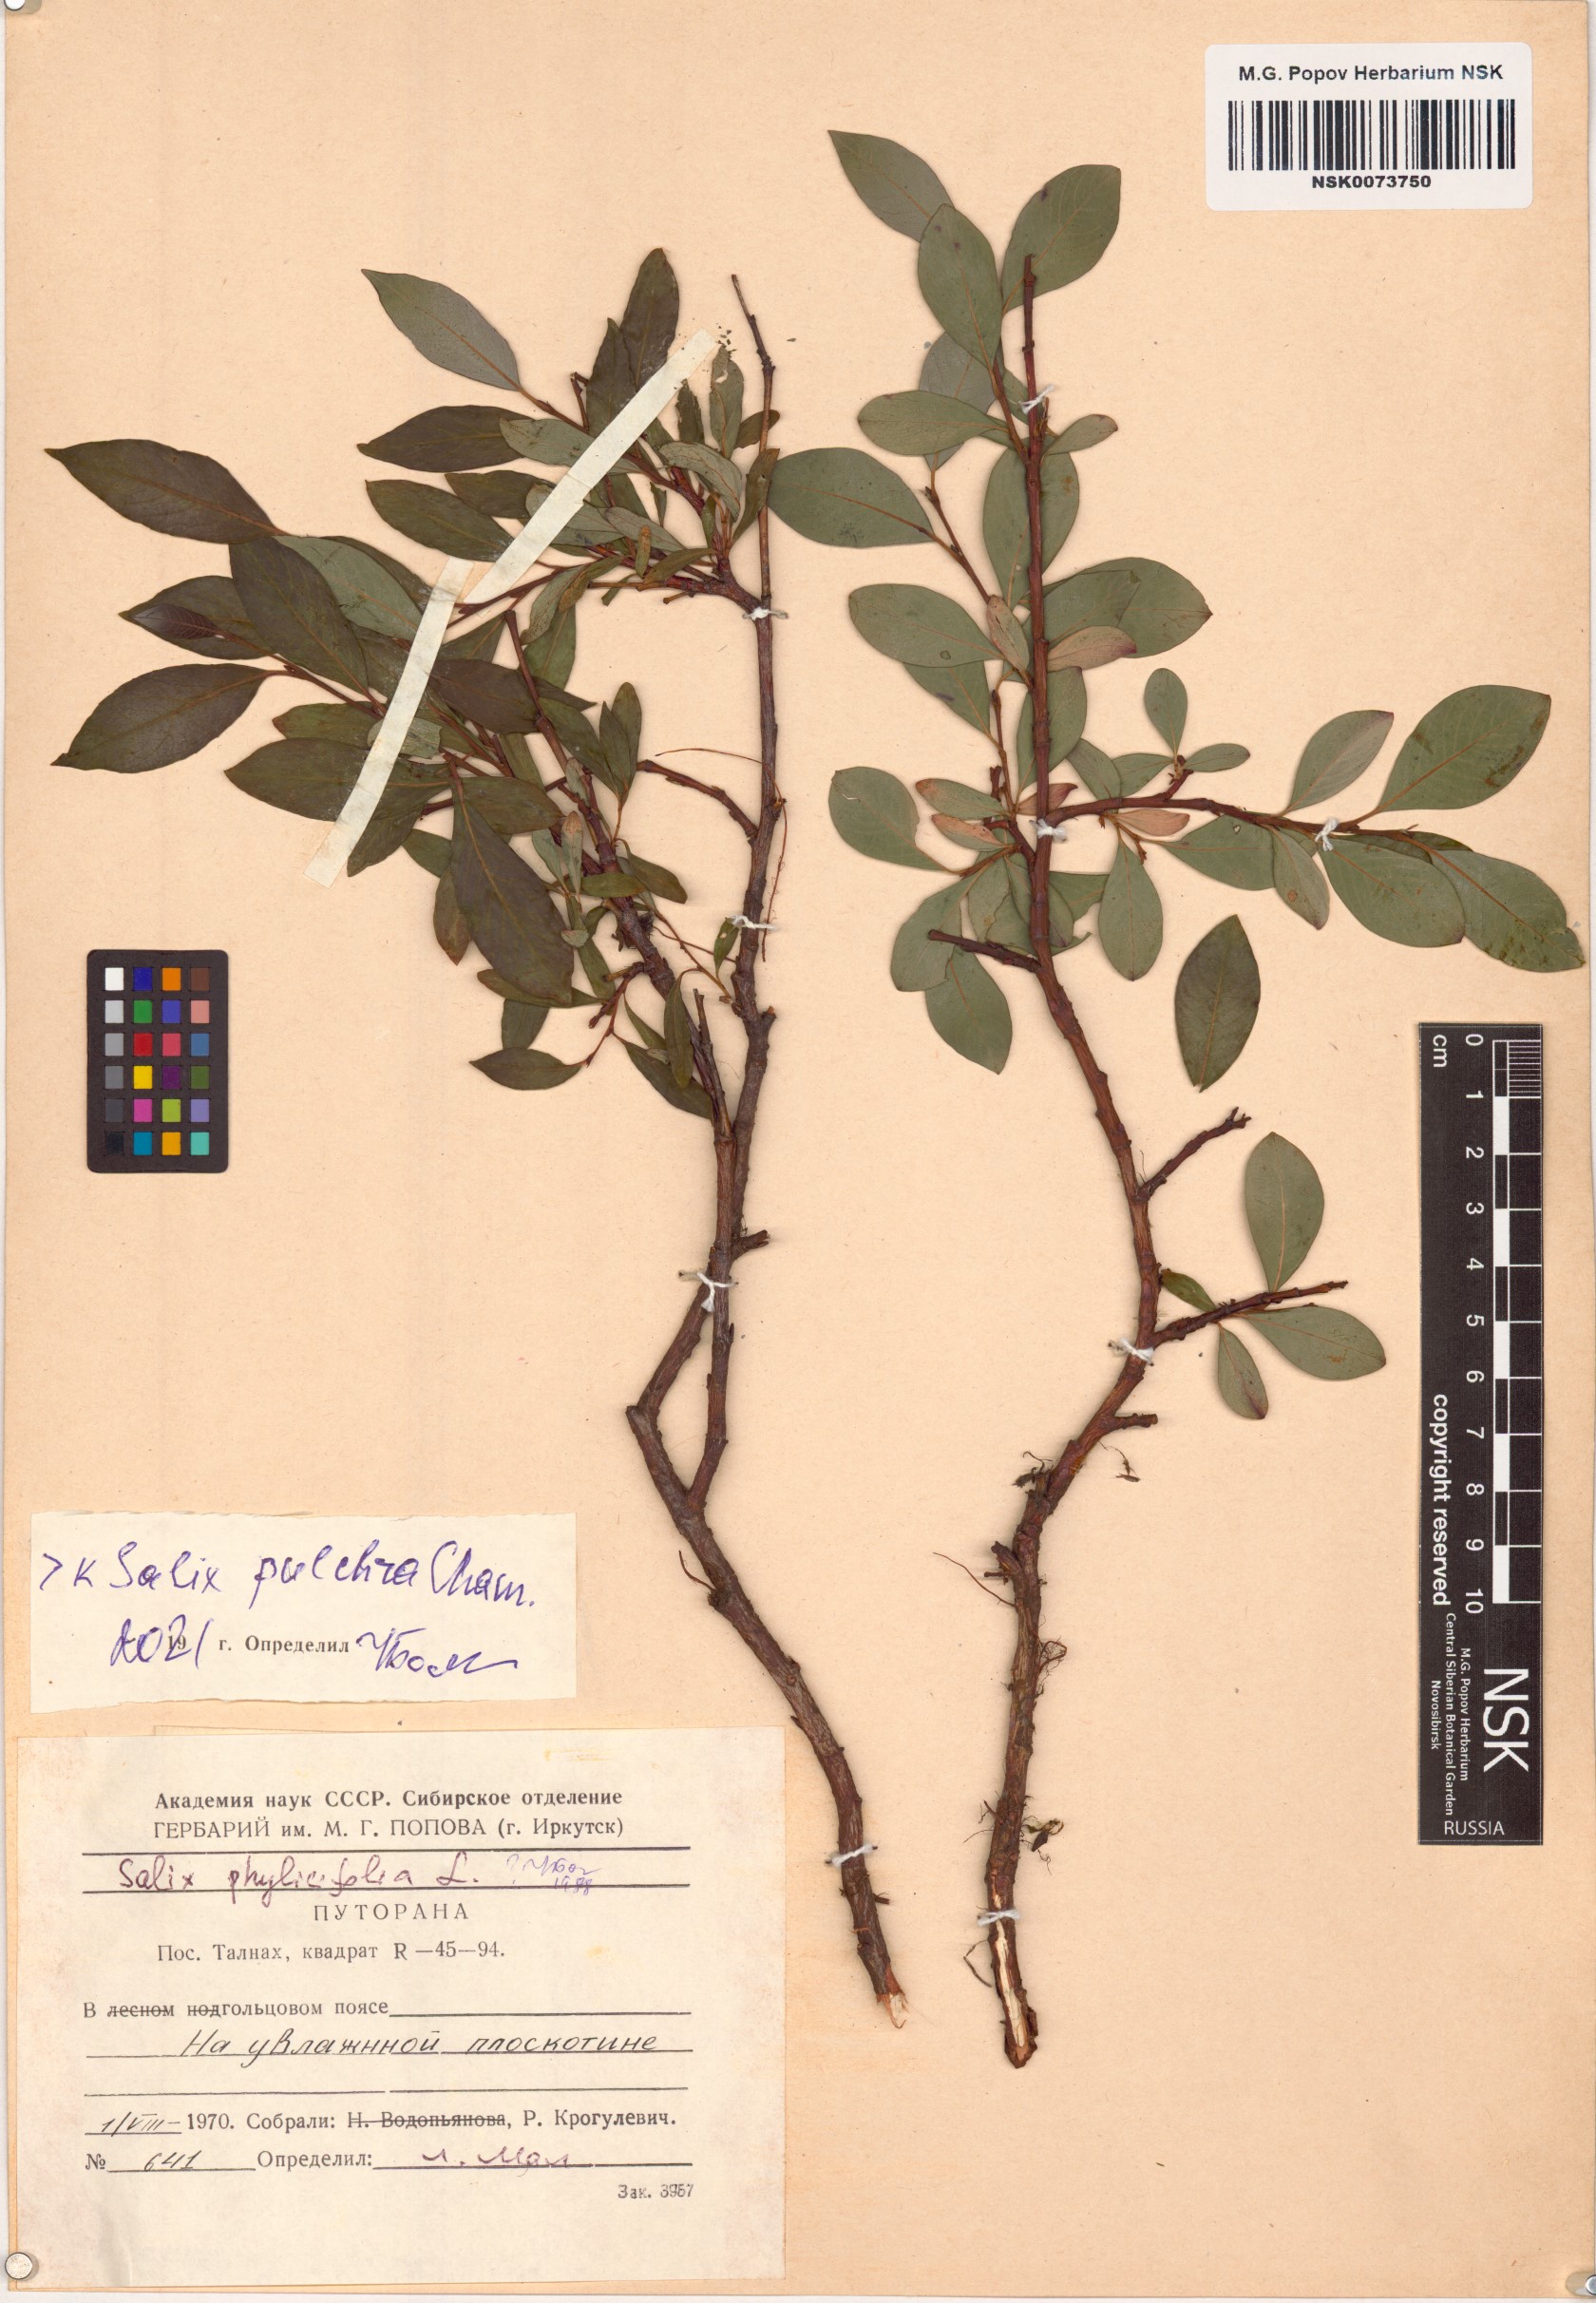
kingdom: Plantae
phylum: Tracheophyta
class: Magnoliopsida
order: Malpighiales
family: Salicaceae
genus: Salix
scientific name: Salix pulchra
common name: Diamond-leaved willow
